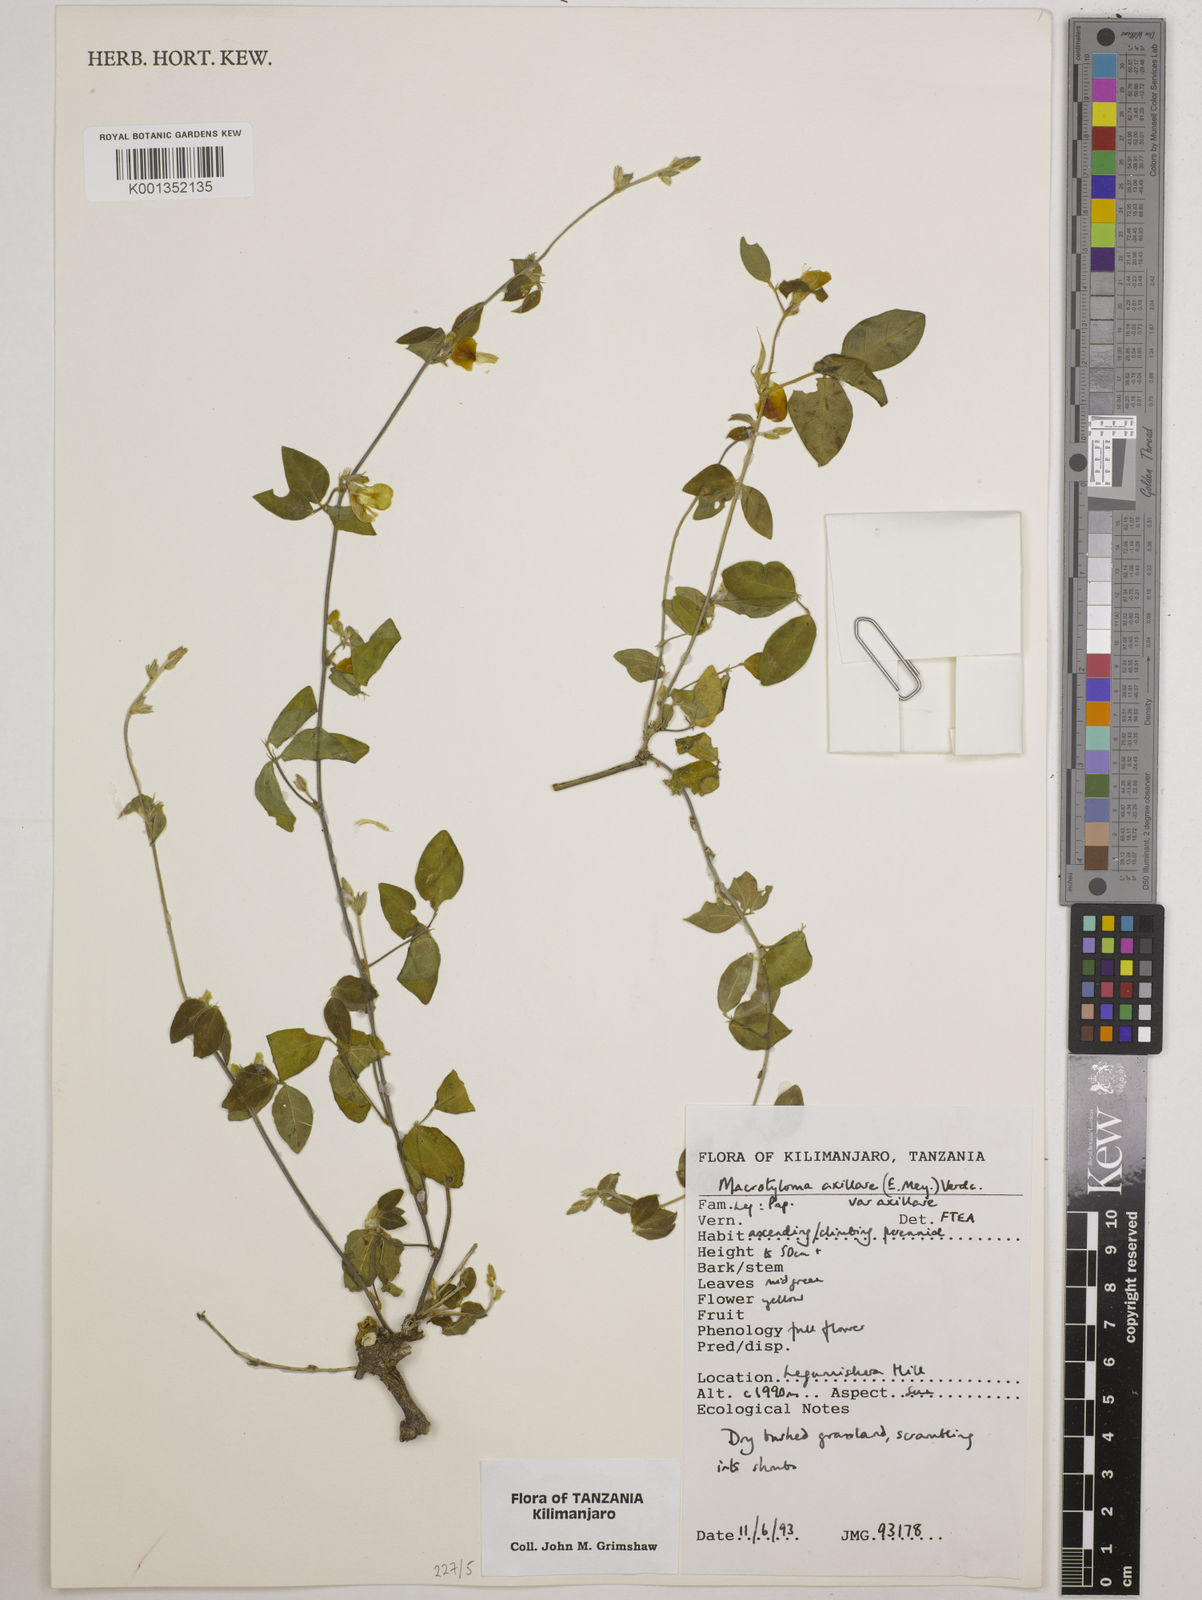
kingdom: Plantae
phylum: Tracheophyta
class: Magnoliopsida
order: Fabales
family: Fabaceae
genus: Macrotyloma
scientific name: Macrotyloma axillare
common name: Perennial horsegram
